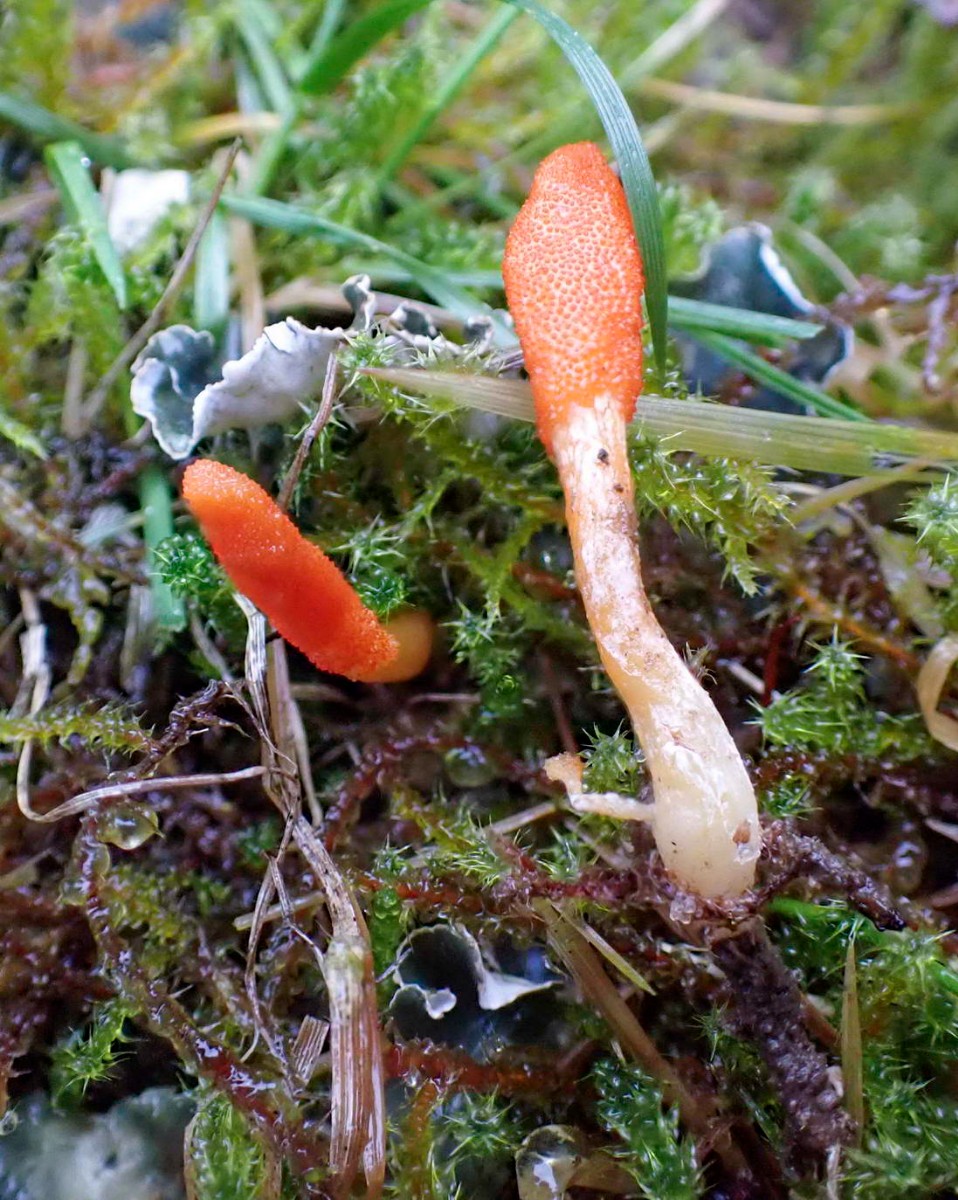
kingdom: Fungi
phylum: Ascomycota
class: Sordariomycetes
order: Hypocreales
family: Cordycipitaceae
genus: Cordyceps
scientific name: Cordyceps militaris
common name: puppe-snyltekølle
